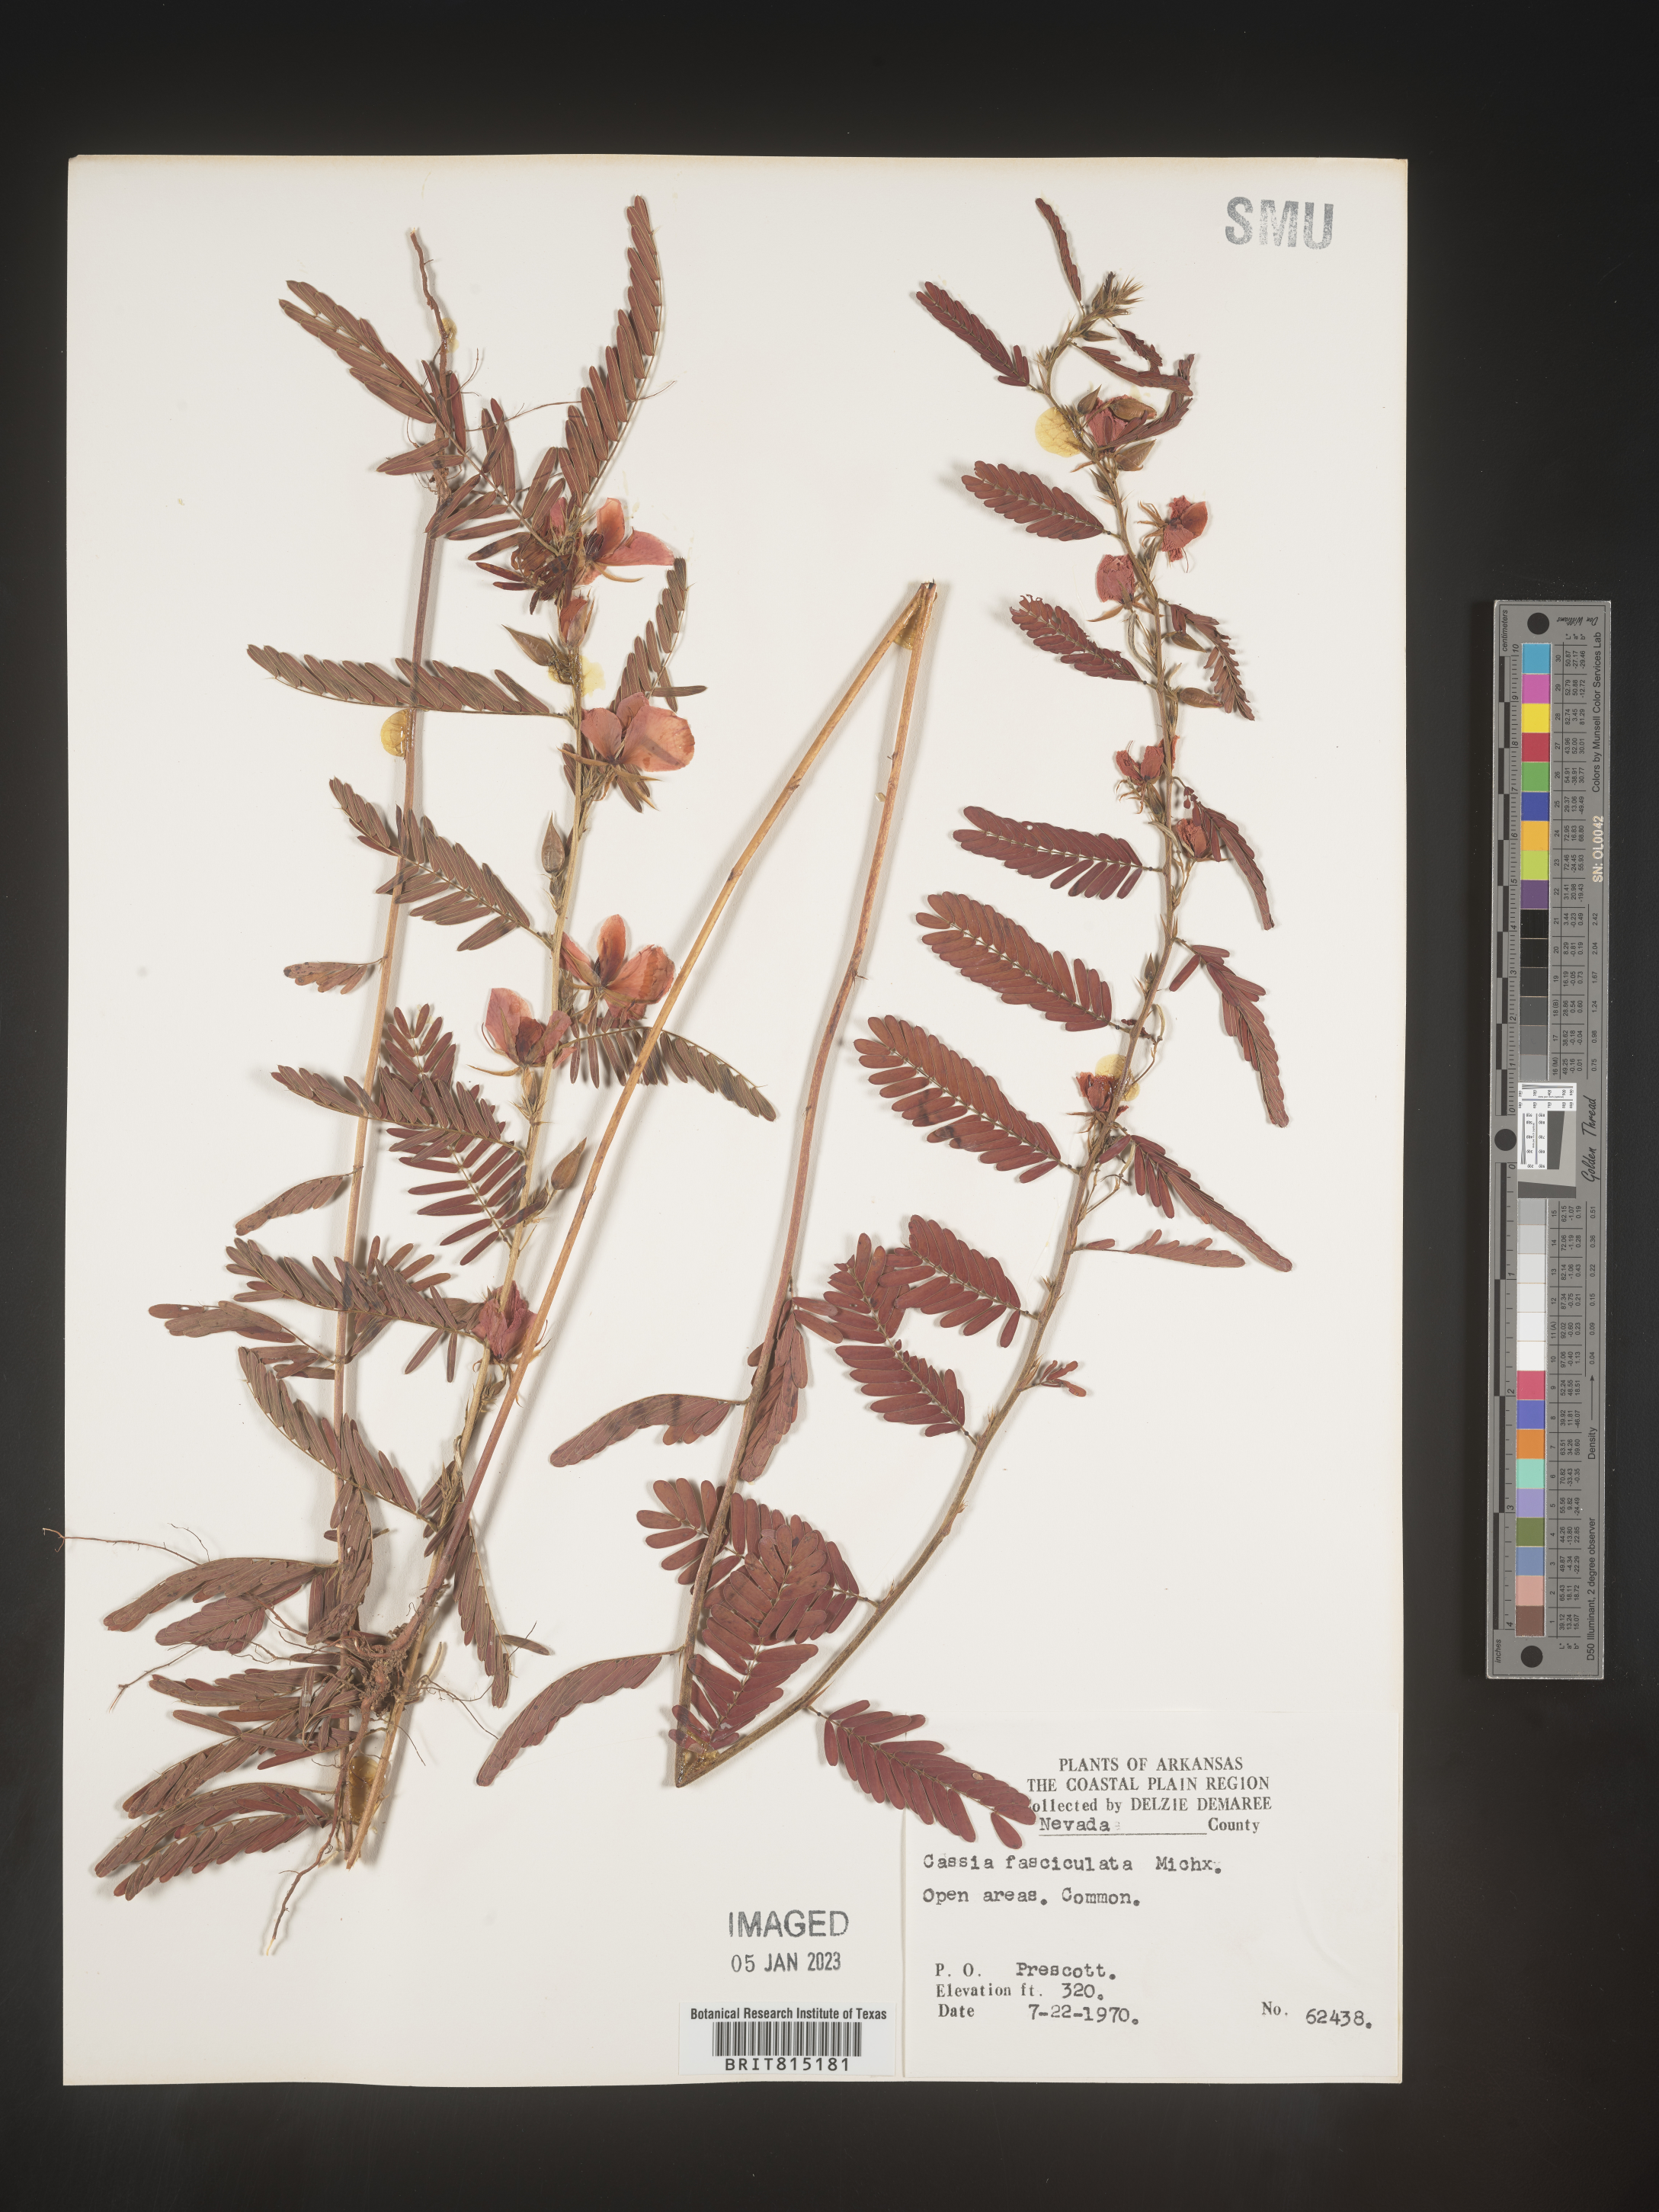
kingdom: Plantae
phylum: Tracheophyta
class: Magnoliopsida
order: Fabales
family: Fabaceae
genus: Chamaecrista
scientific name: Chamaecrista fasciculata
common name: Golden cassia
